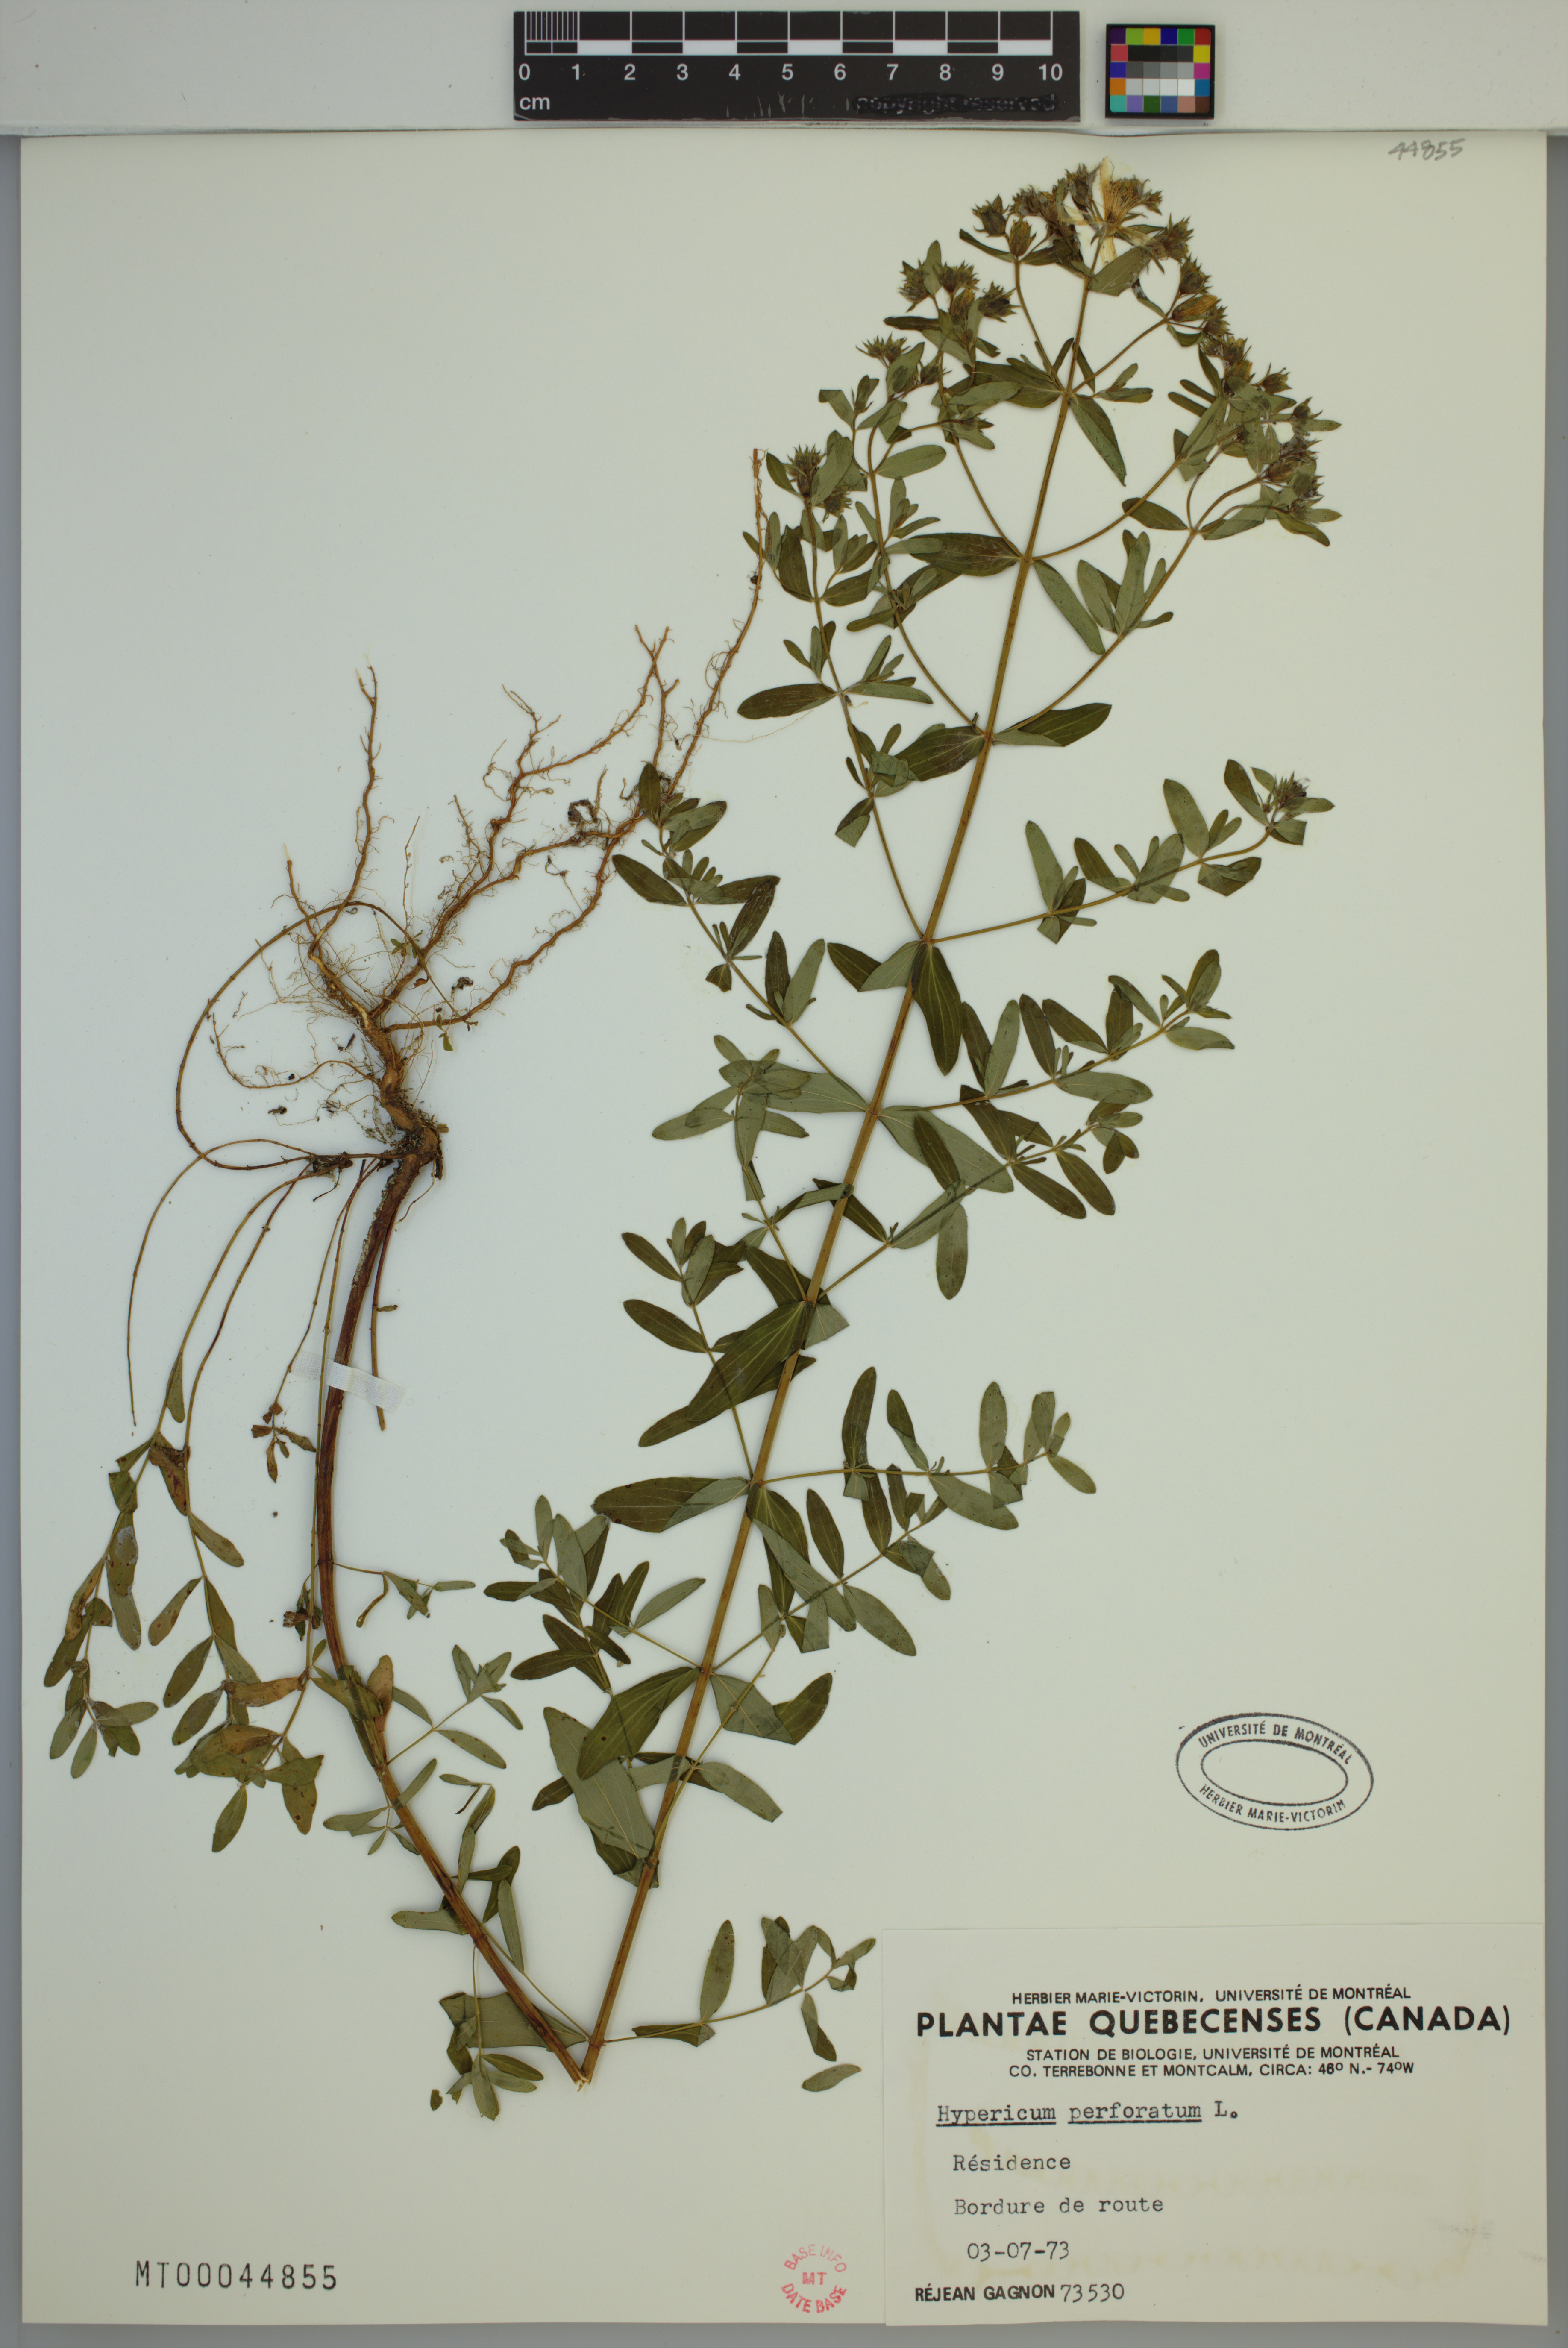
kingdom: Plantae
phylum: Tracheophyta
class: Magnoliopsida
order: Malpighiales
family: Hypericaceae
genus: Hypericum
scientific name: Hypericum perforatum
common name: Common st. johnswort
